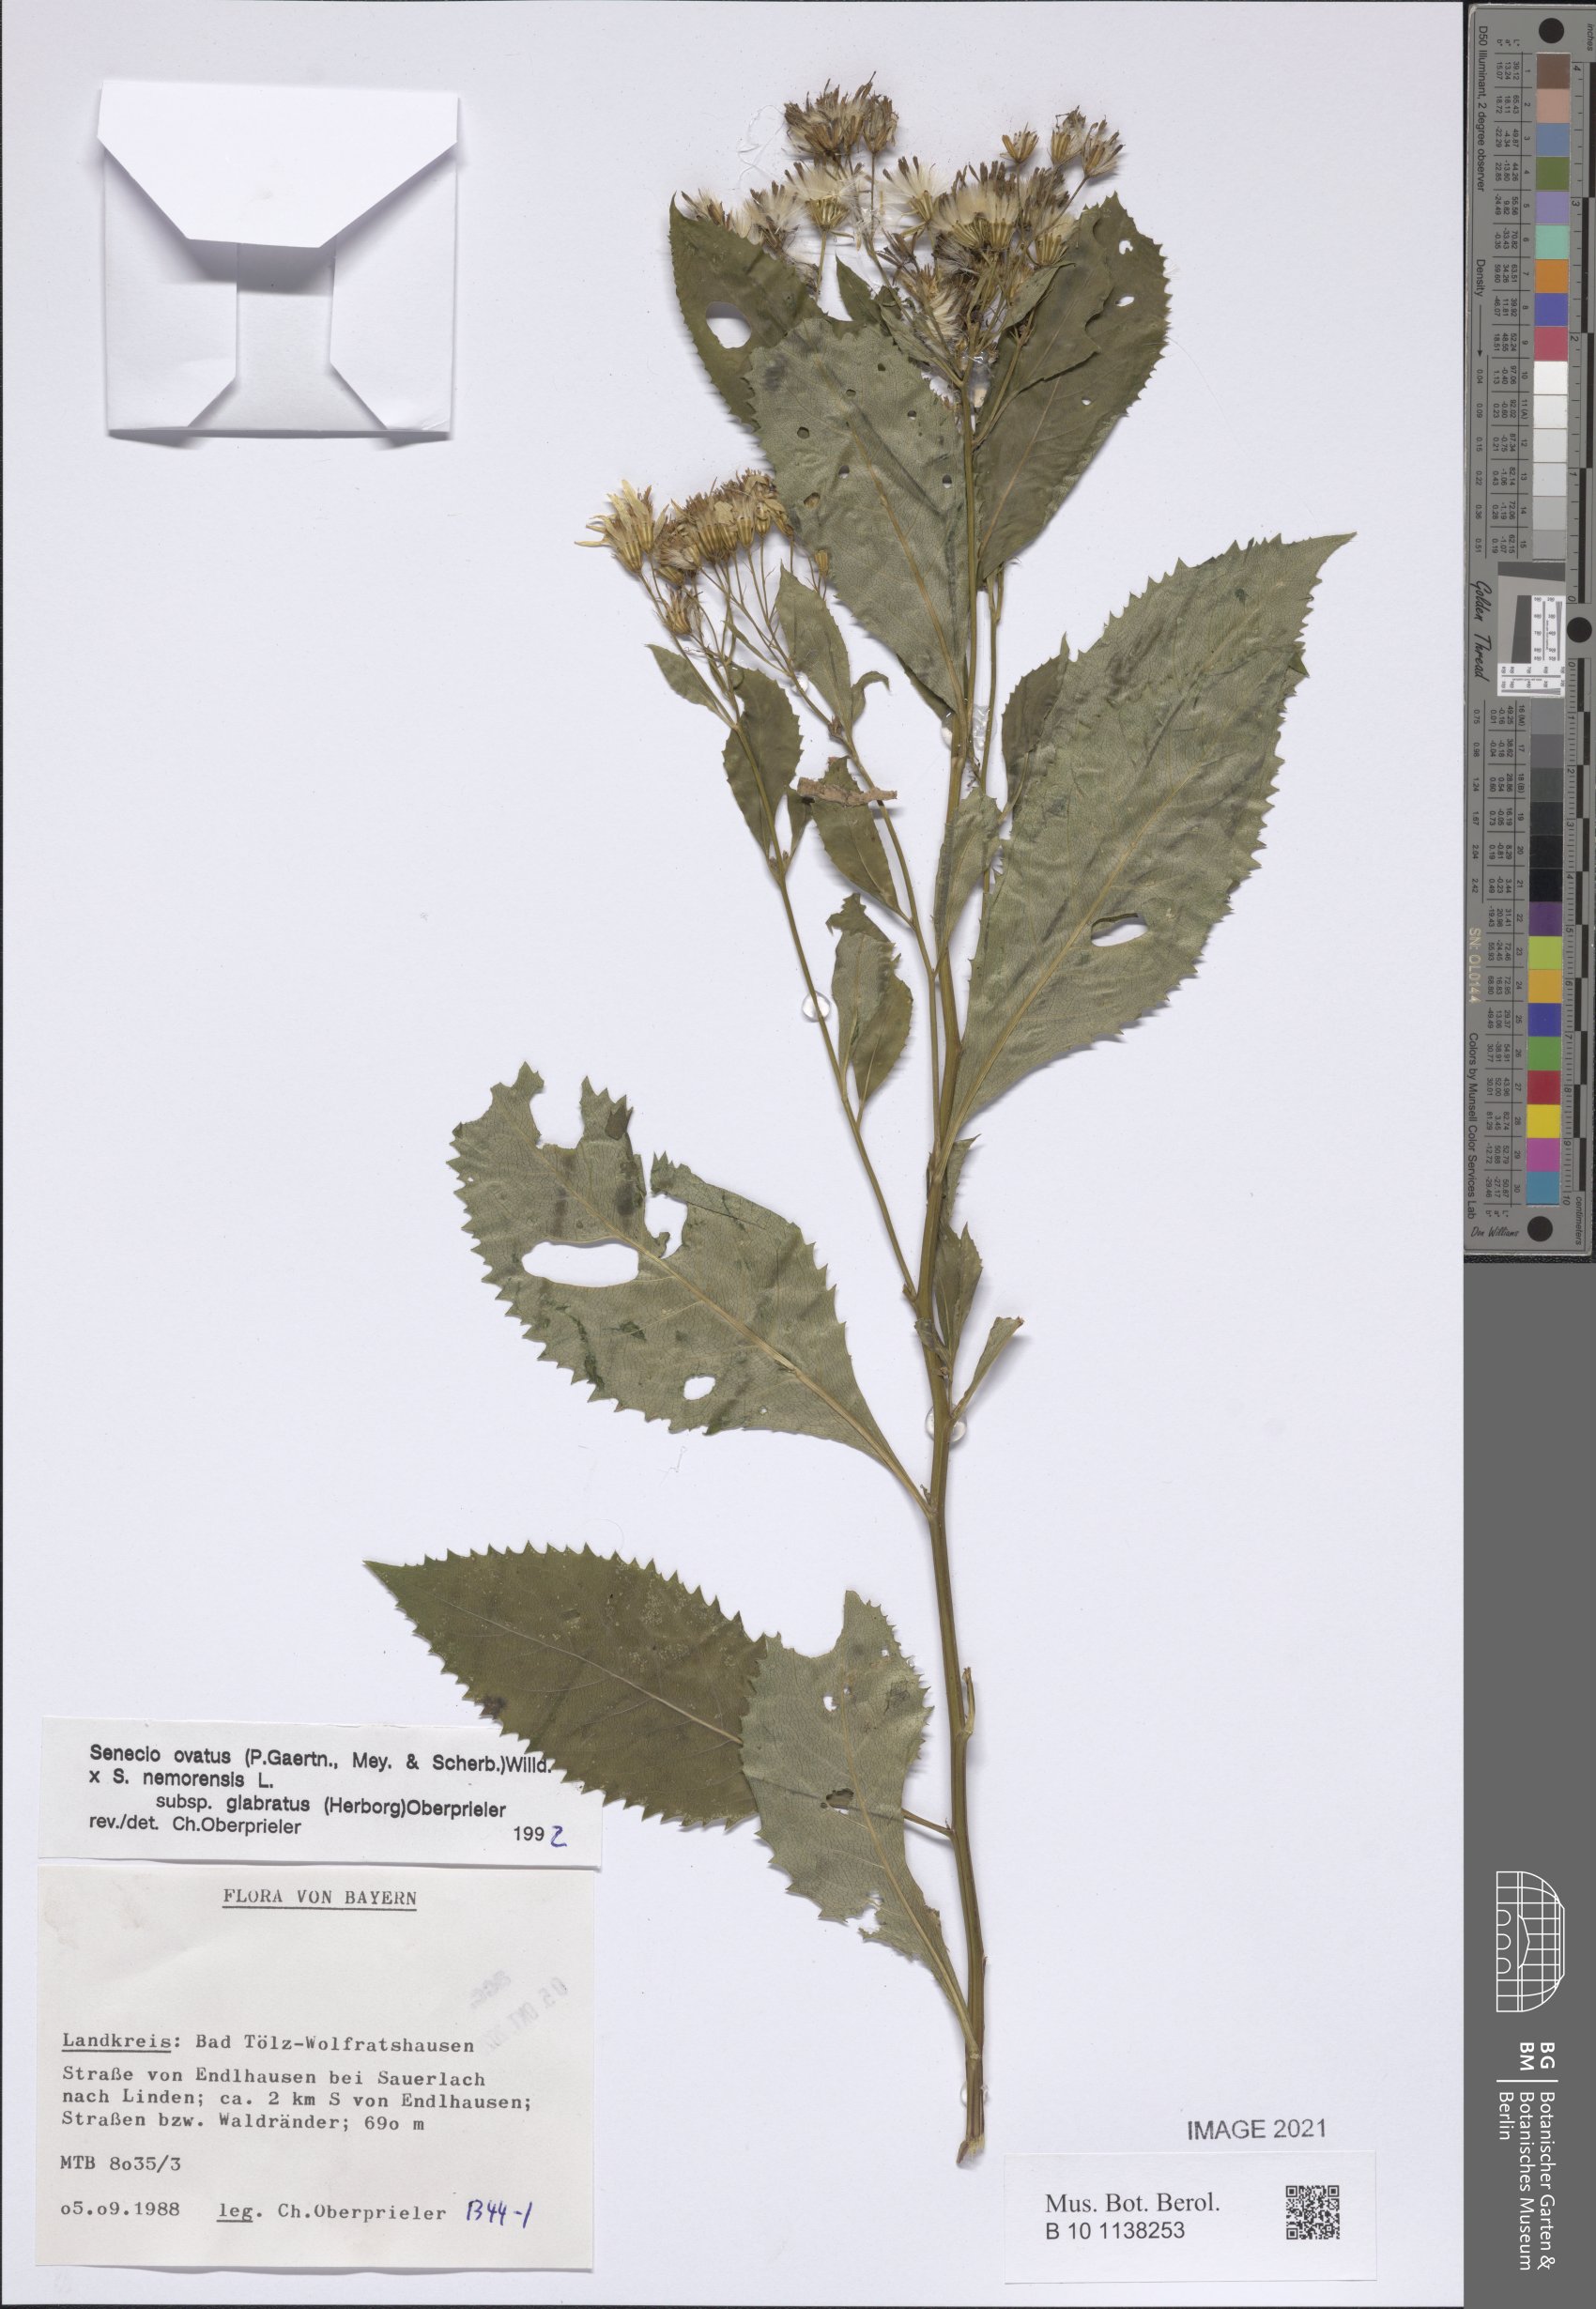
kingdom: Plantae
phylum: Tracheophyta
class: Magnoliopsida
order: Asterales
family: Asteraceae
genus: Senecio
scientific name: Senecio ovatus
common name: Wood ragwort
